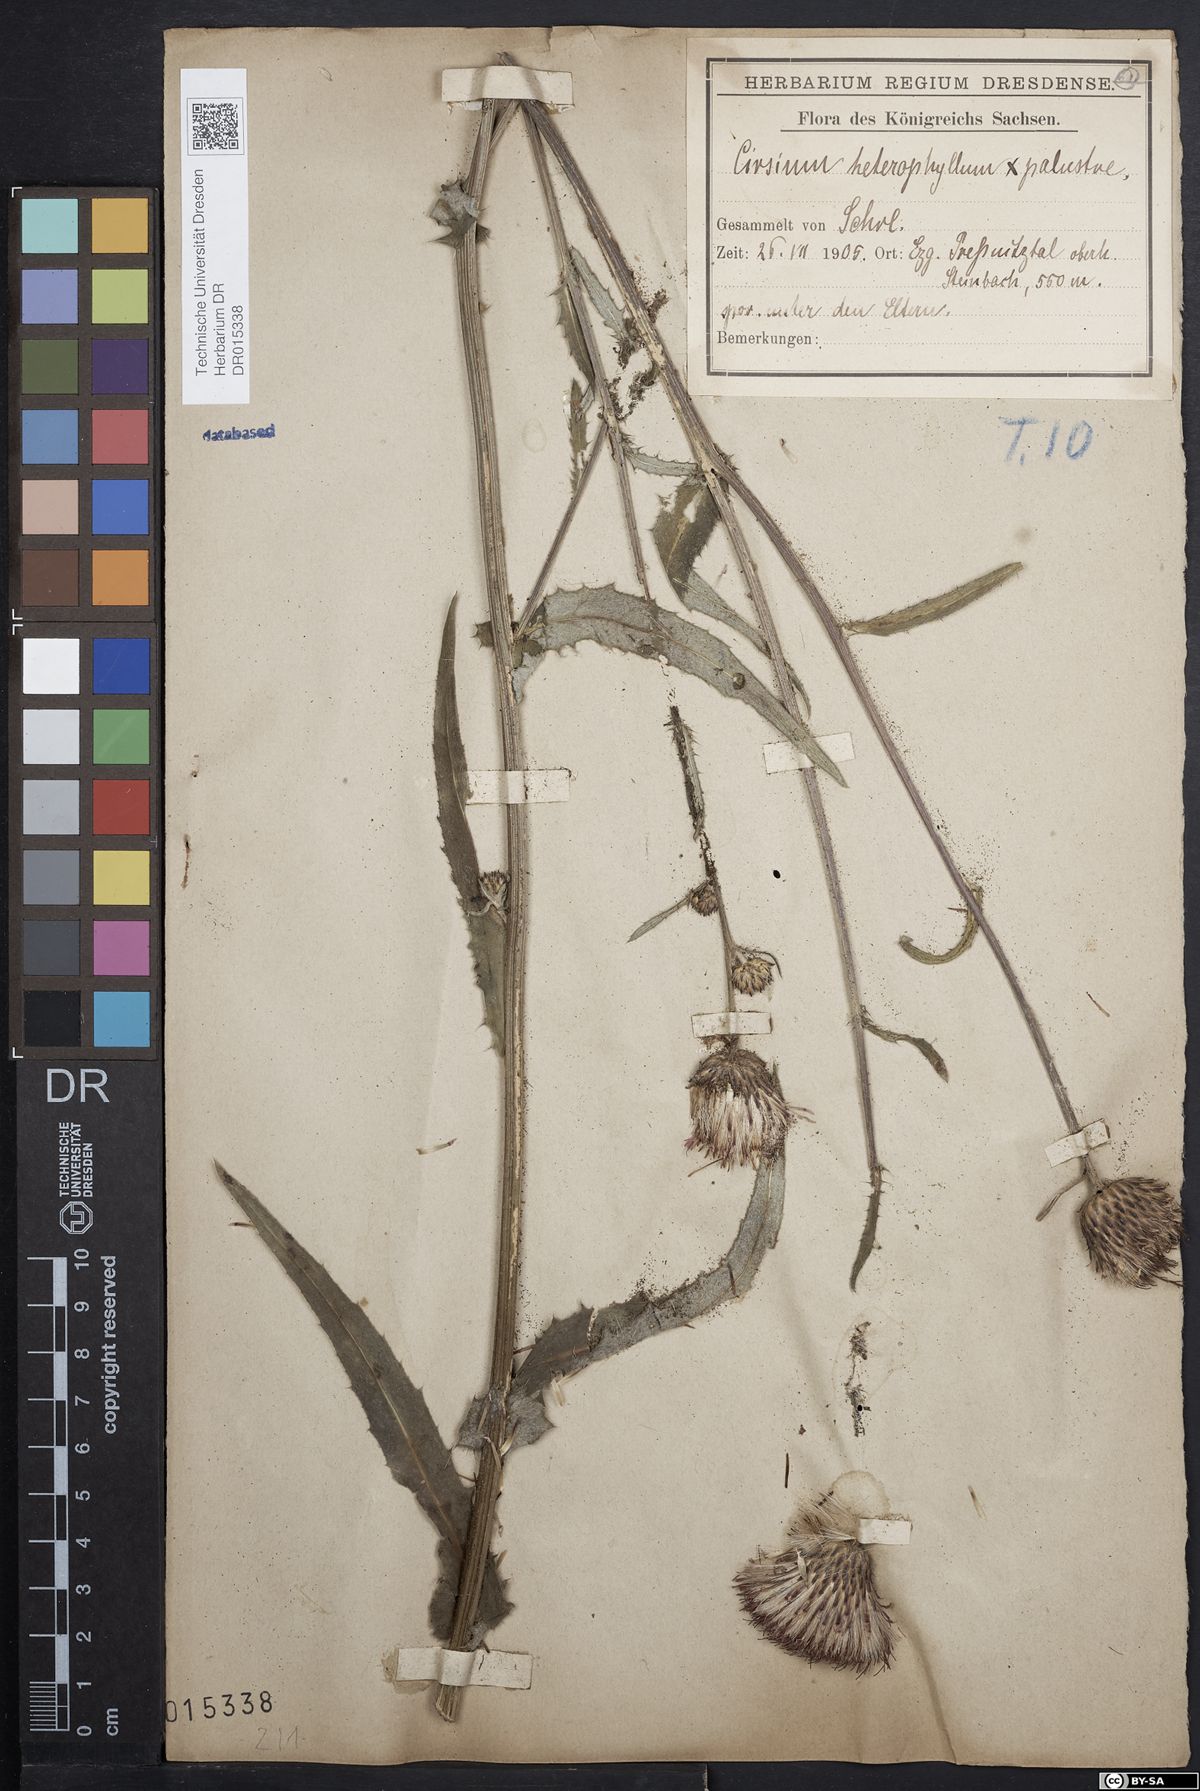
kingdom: Plantae
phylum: Tracheophyta
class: Magnoliopsida
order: Asterales
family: Asteraceae
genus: Cirsium
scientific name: Cirsium wankelii
